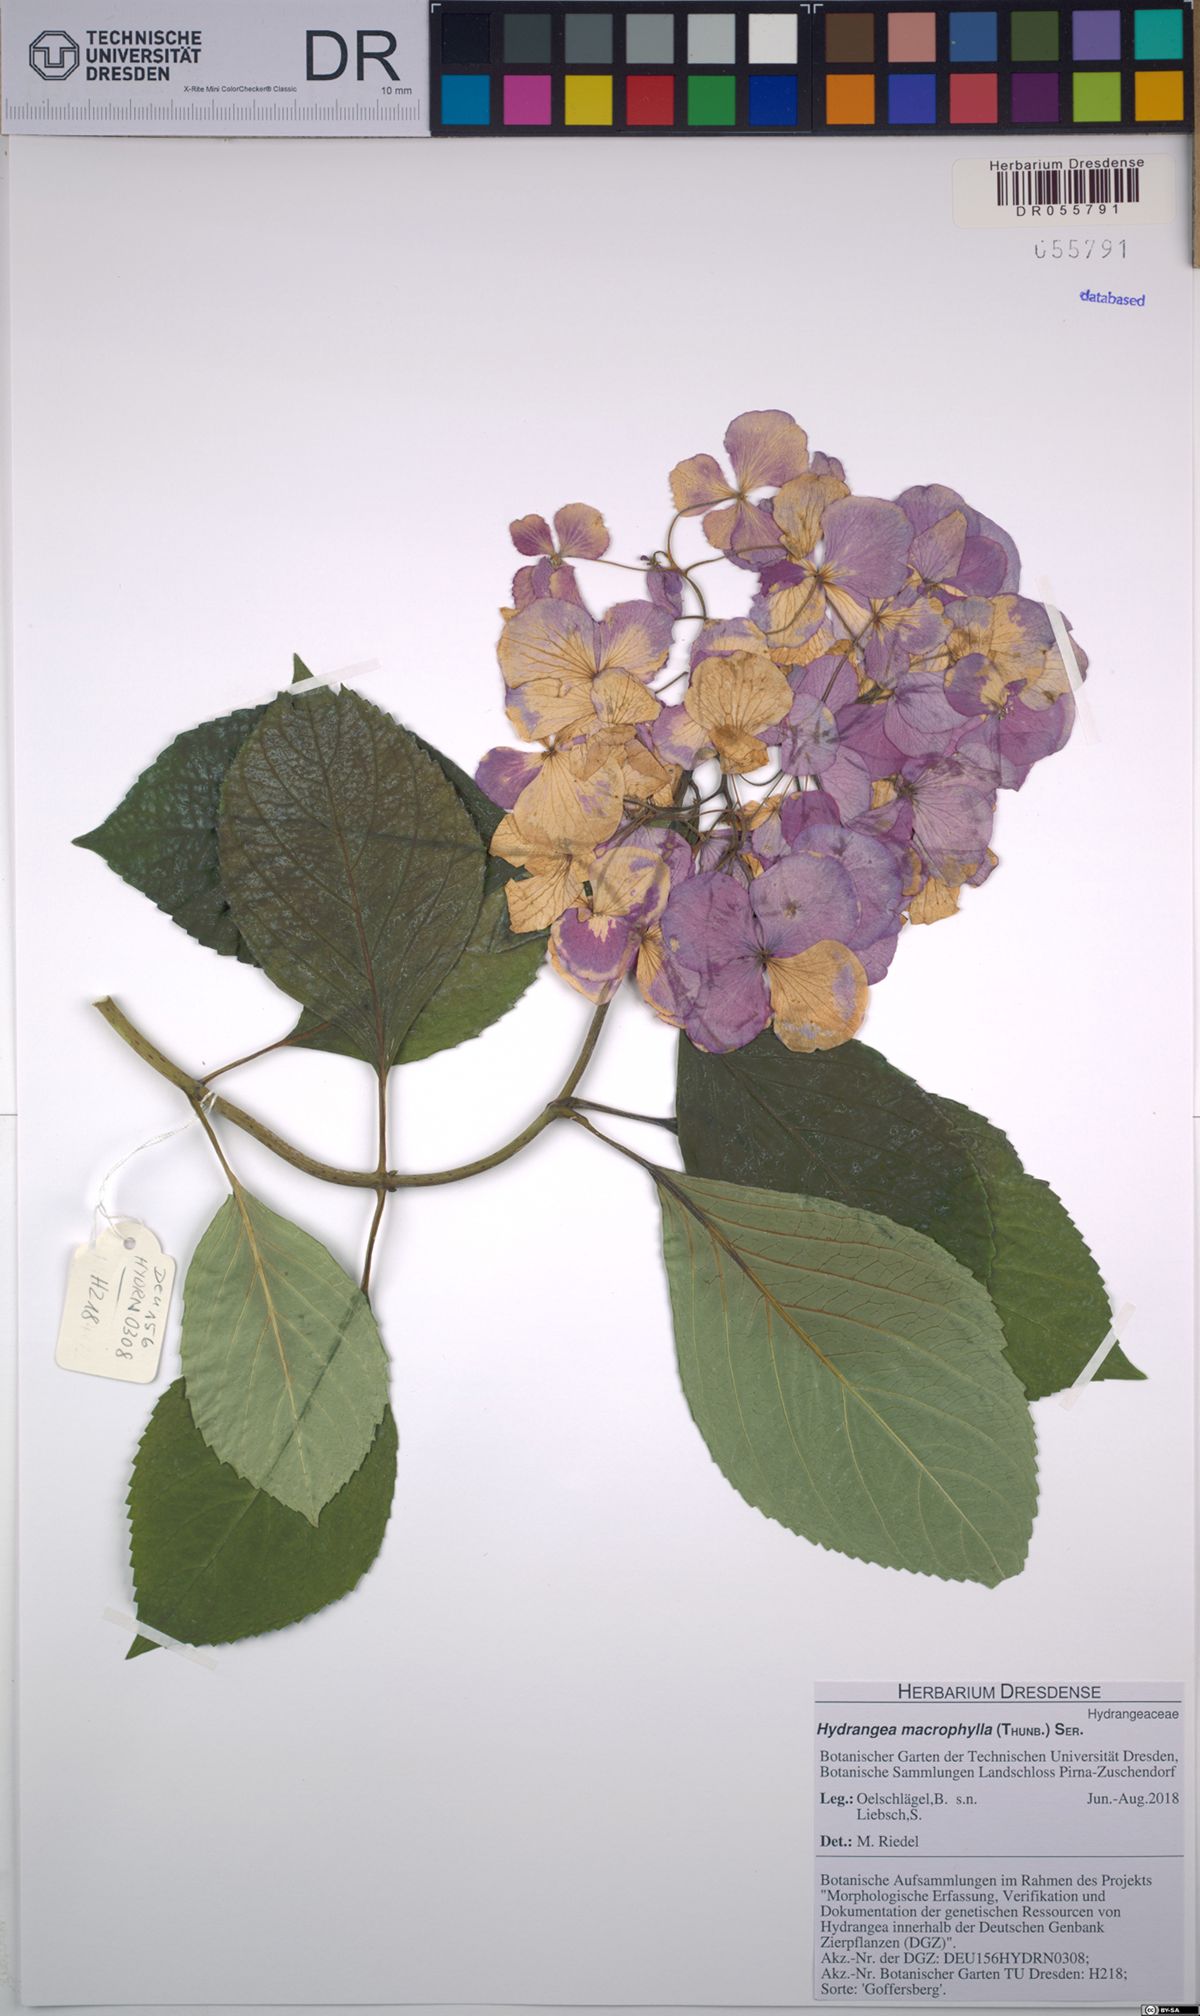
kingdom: Plantae
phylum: Tracheophyta
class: Magnoliopsida
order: Cornales
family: Hydrangeaceae
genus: Hydrangea
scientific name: Hydrangea macrophylla
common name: Hydrangea
